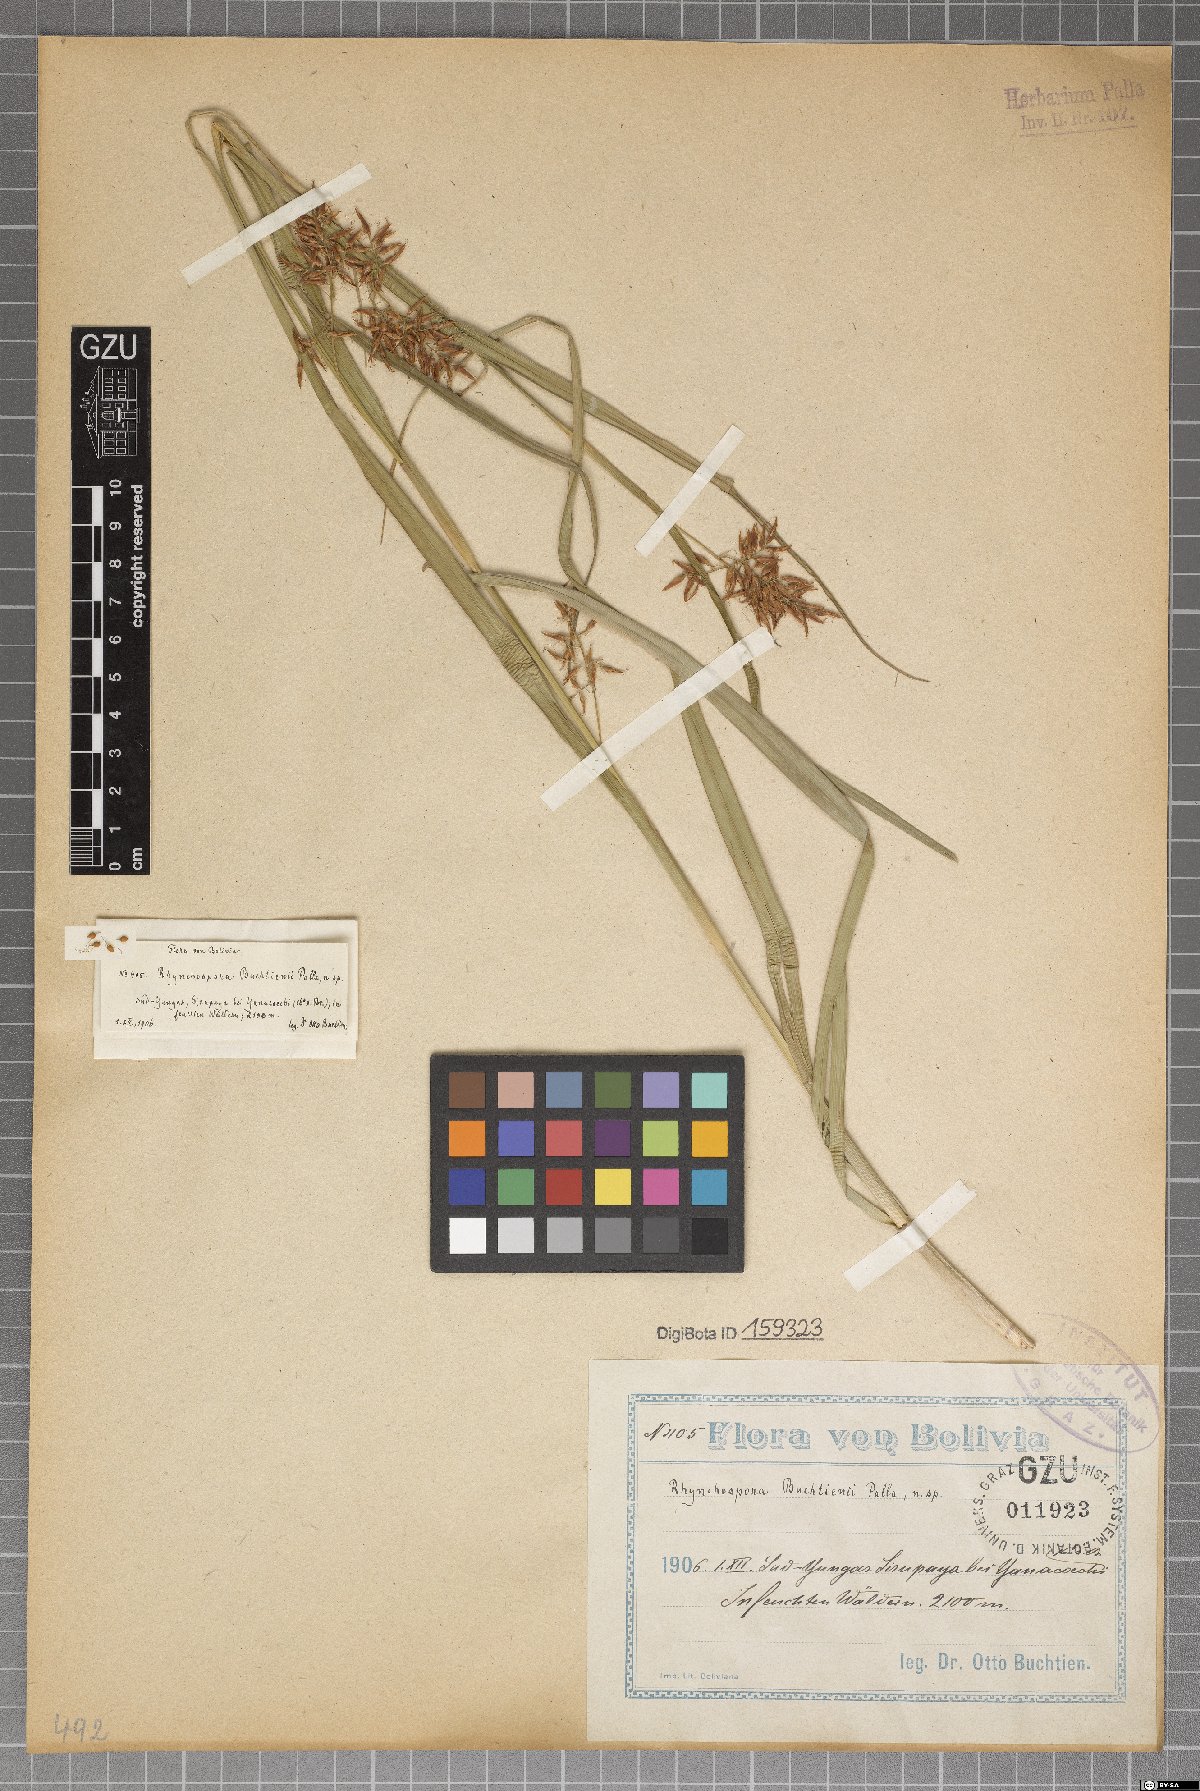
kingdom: Plantae
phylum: Tracheophyta
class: Liliopsida
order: Poales
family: Cyperaceae
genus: Rhynchospora
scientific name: Rhynchospora buchtienii
